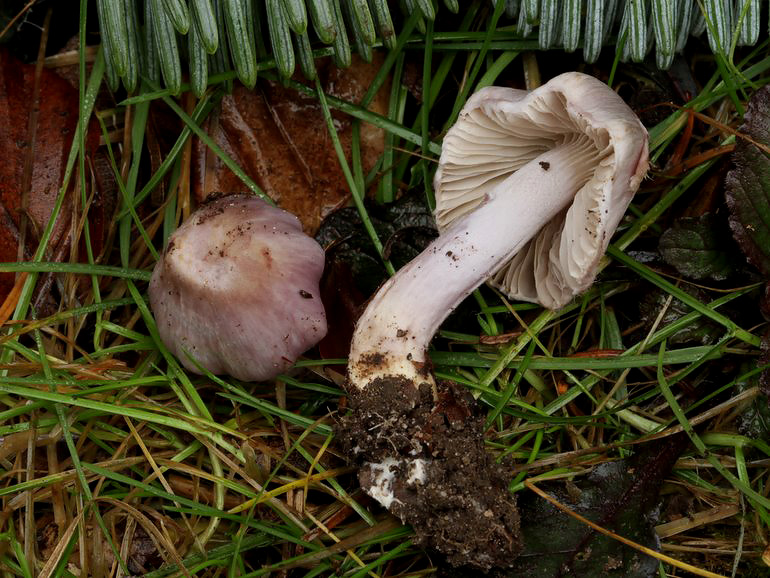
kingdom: Fungi
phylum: Basidiomycota
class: Agaricomycetes
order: Agaricales
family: Inocybaceae
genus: Inocybe
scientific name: Inocybe geophylla
